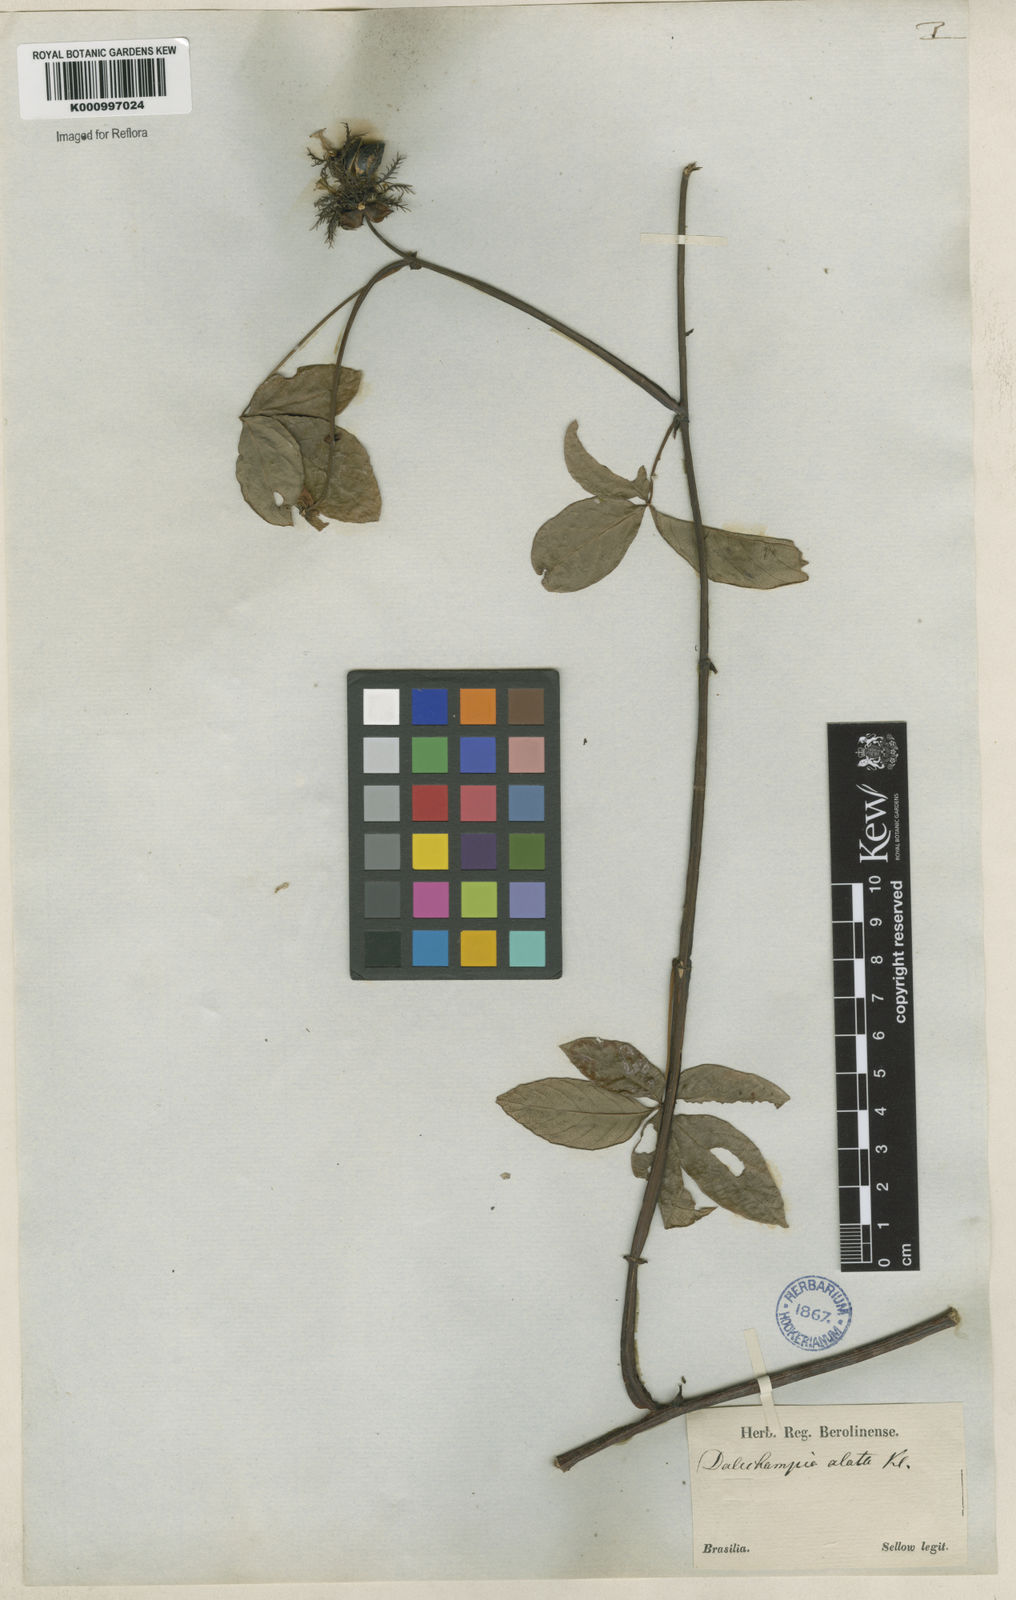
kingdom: Plantae
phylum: Tracheophyta
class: Magnoliopsida
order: Malpighiales
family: Euphorbiaceae
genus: Dalechampia
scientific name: Dalechampia alata
